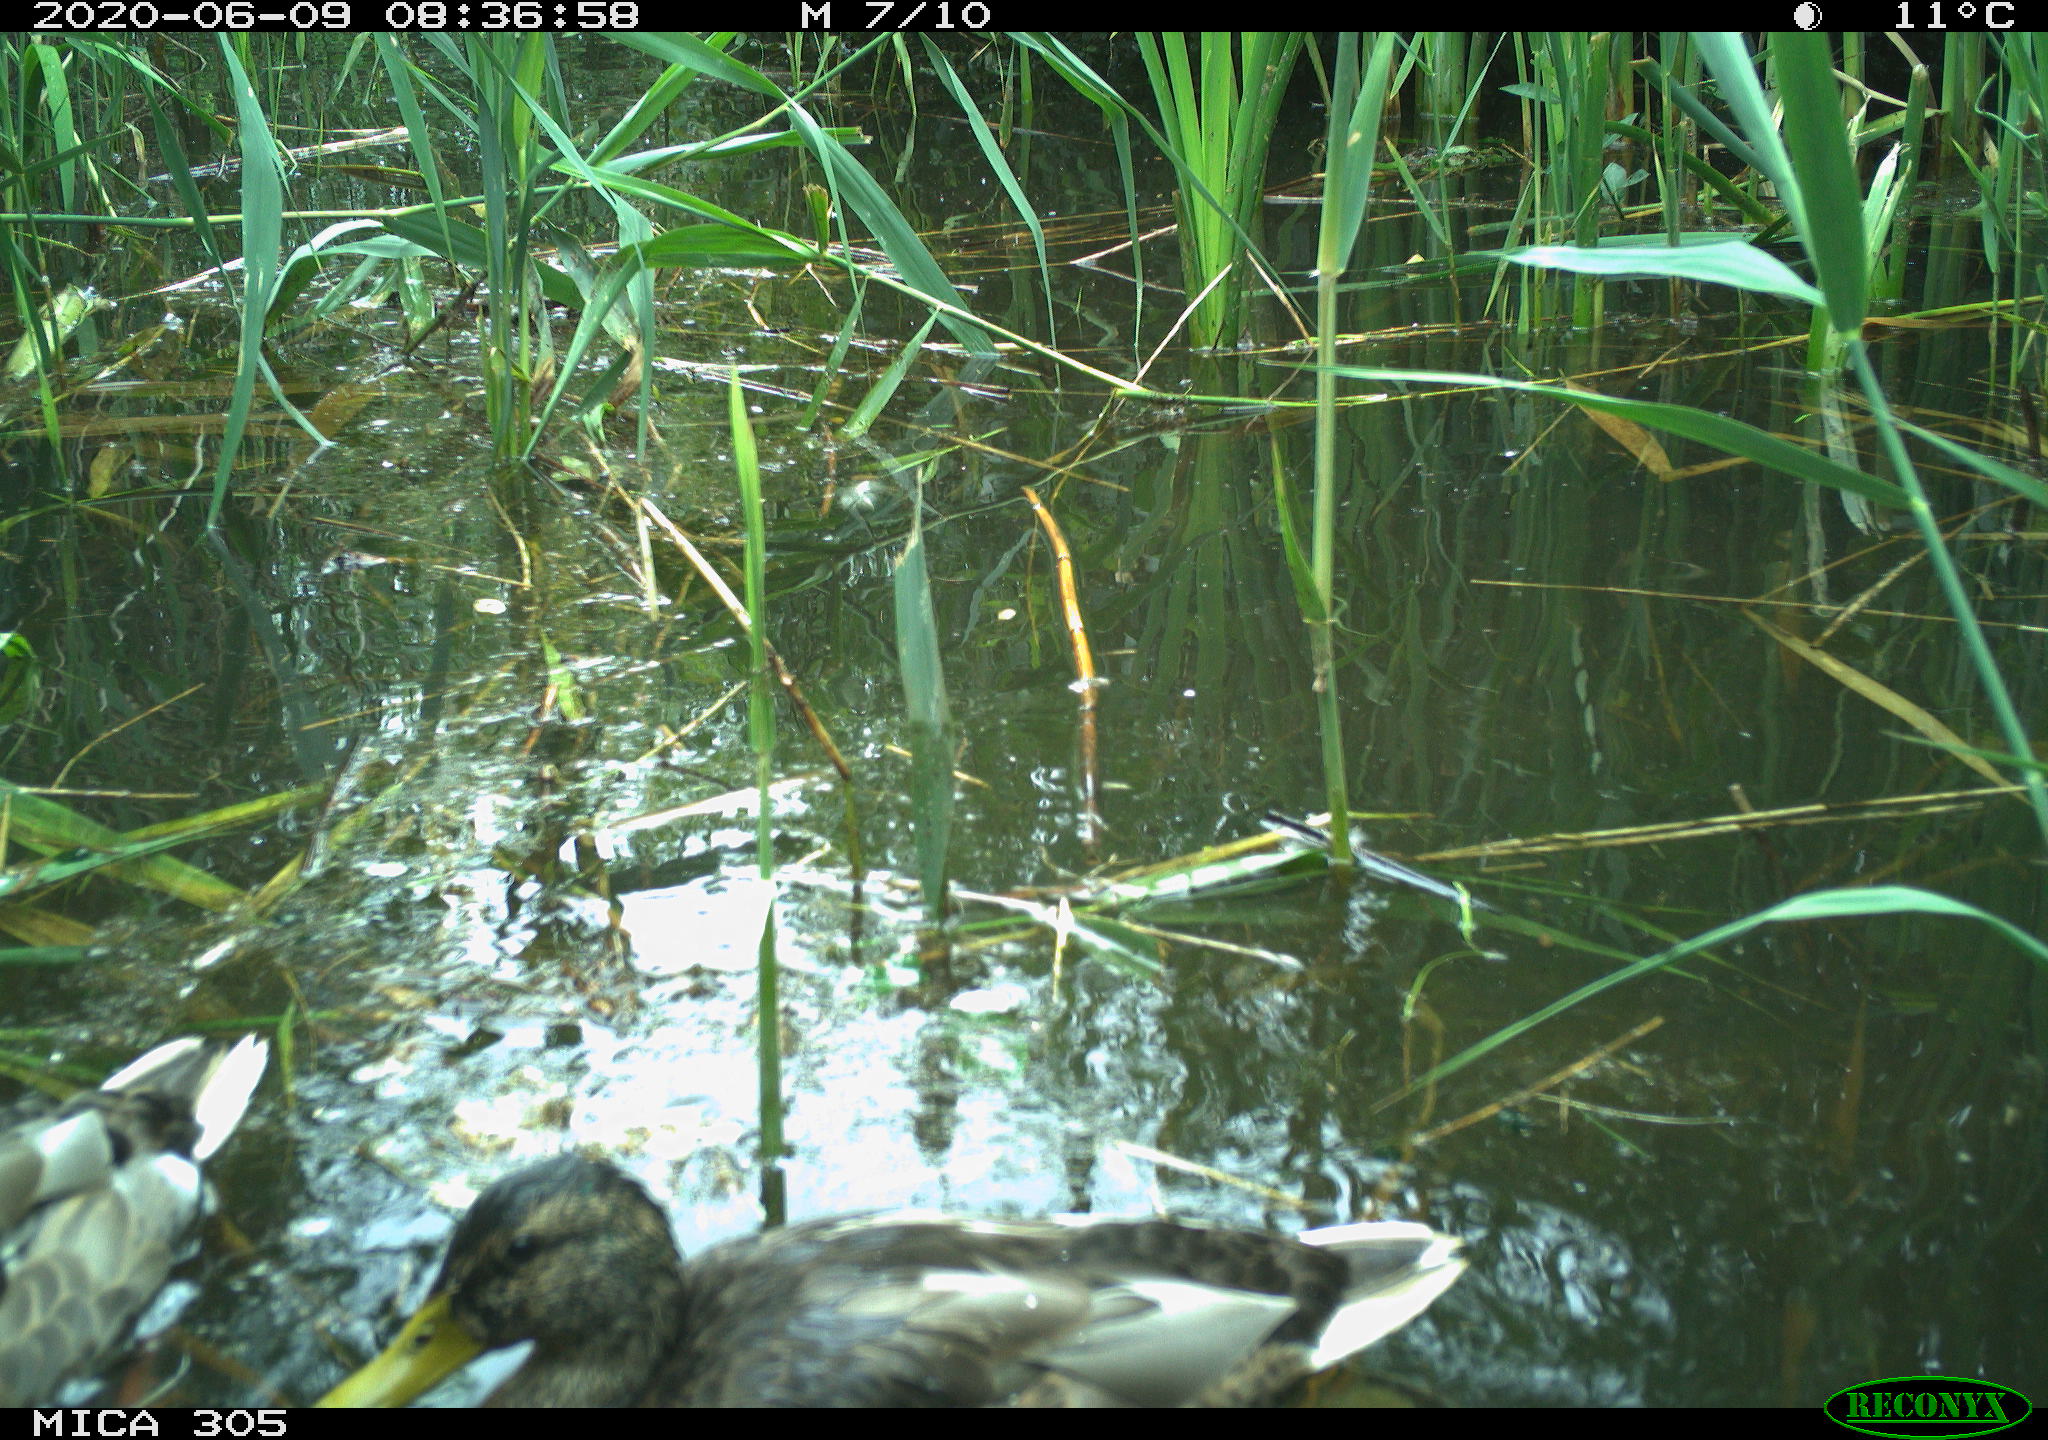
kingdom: Animalia
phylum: Chordata
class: Aves
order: Anseriformes
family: Anatidae
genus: Anas
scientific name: Anas platyrhynchos
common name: Mallard
